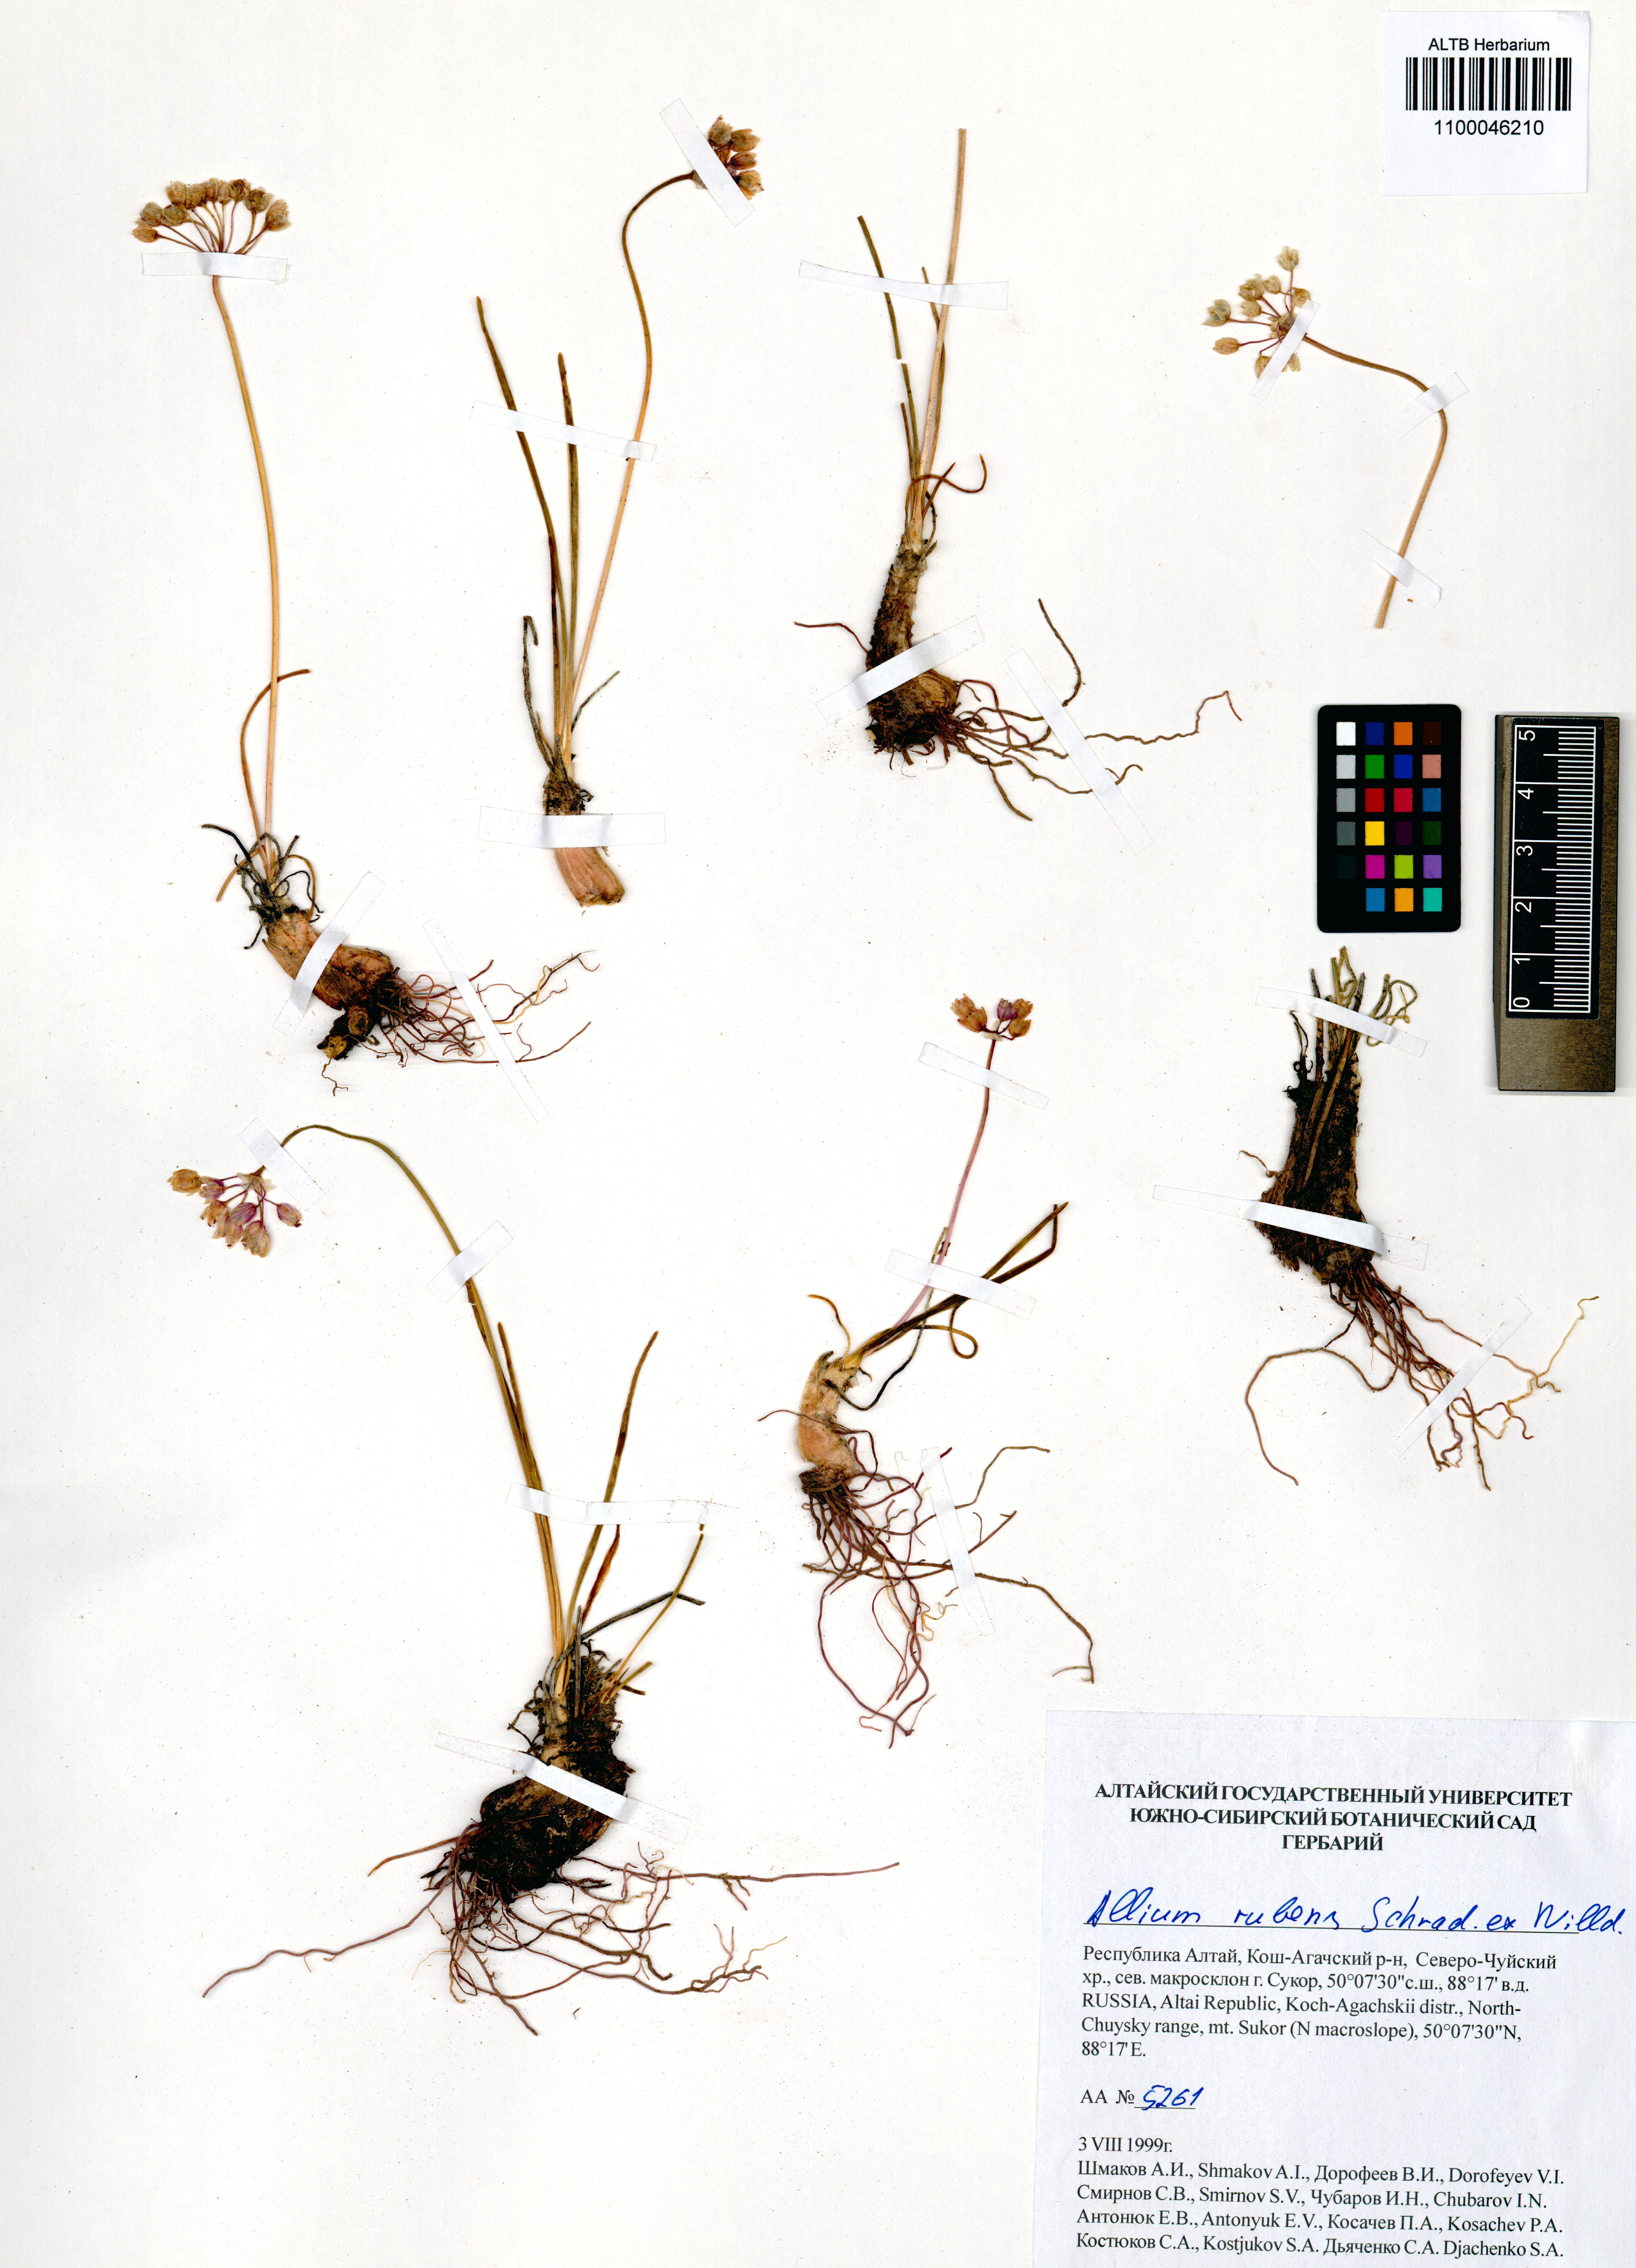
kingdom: Plantae
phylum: Tracheophyta
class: Liliopsida
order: Asparagales
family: Amaryllidaceae
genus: Allium
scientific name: Allium rubens
